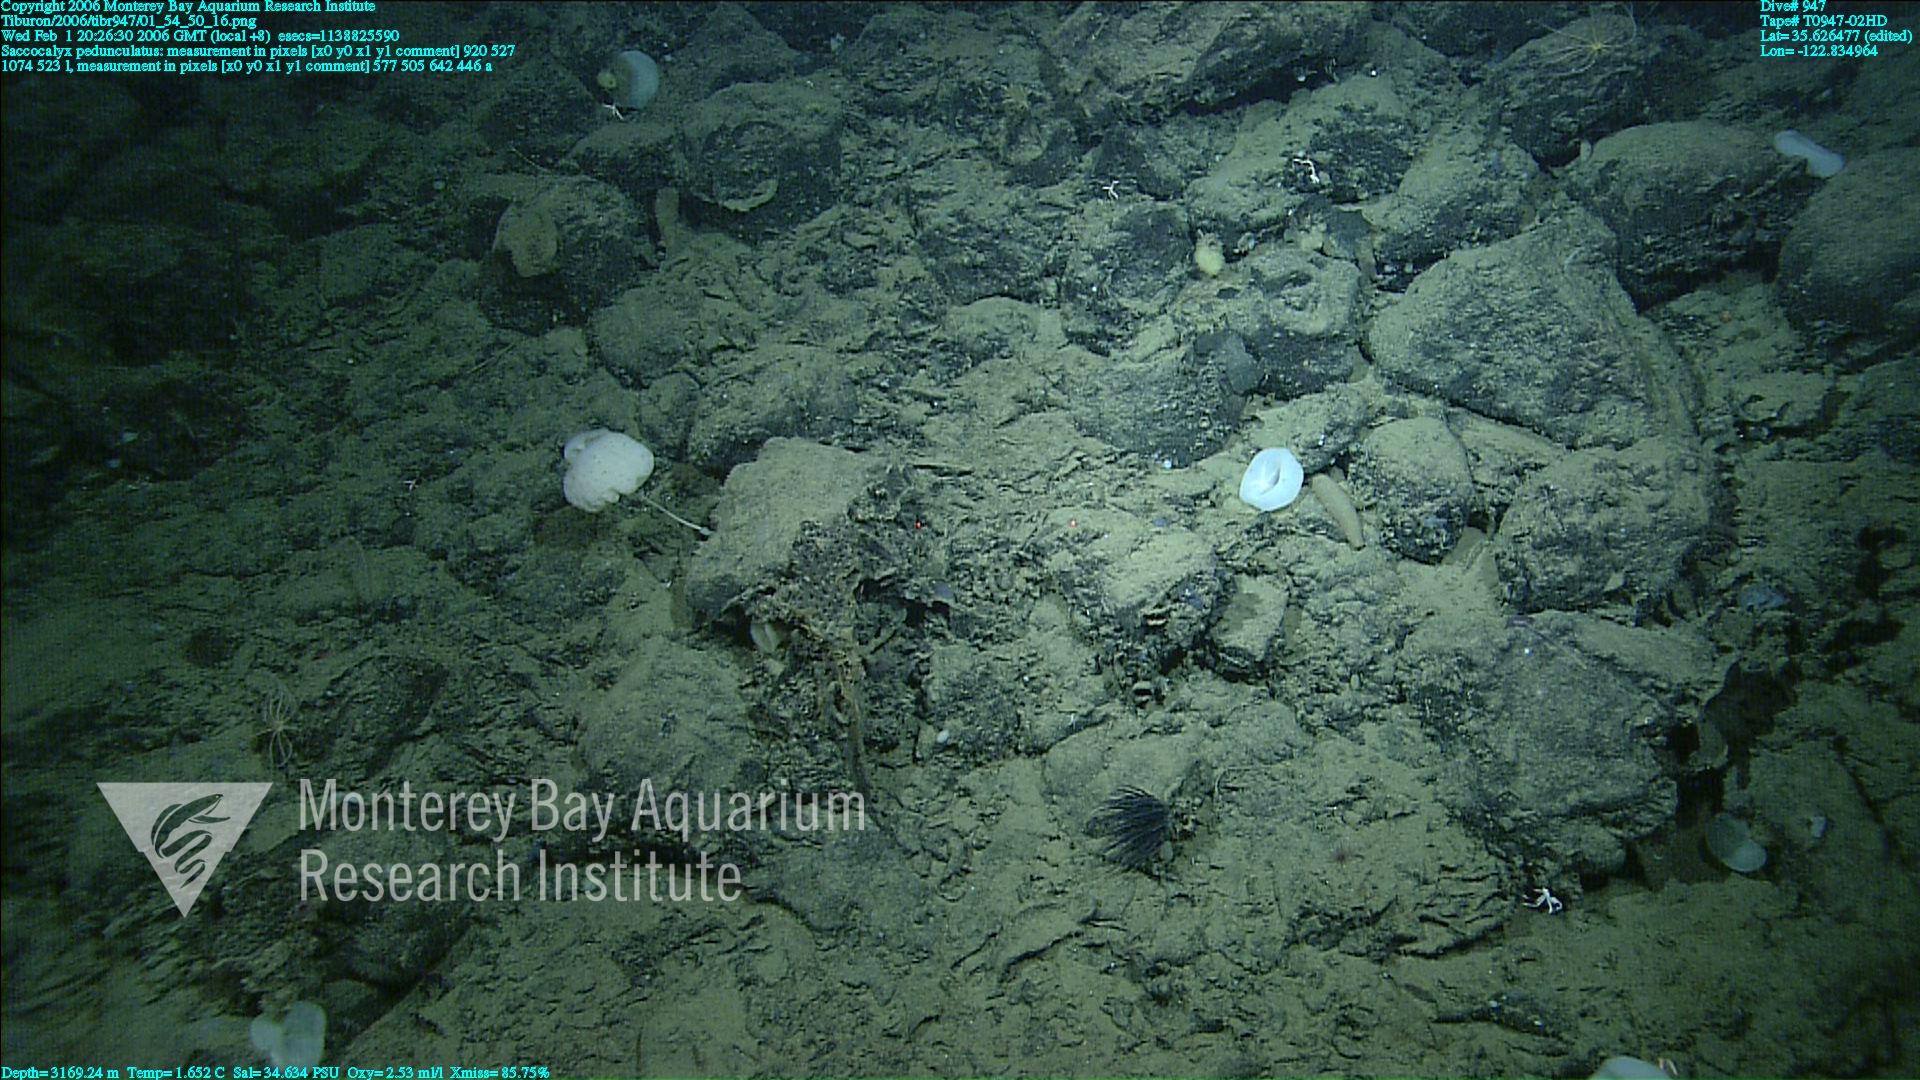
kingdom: Animalia
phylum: Porifera
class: Hexactinellida
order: Lyssacinosida
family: Euplectellidae
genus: Saccocalyx
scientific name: Saccocalyx pedunculatus
